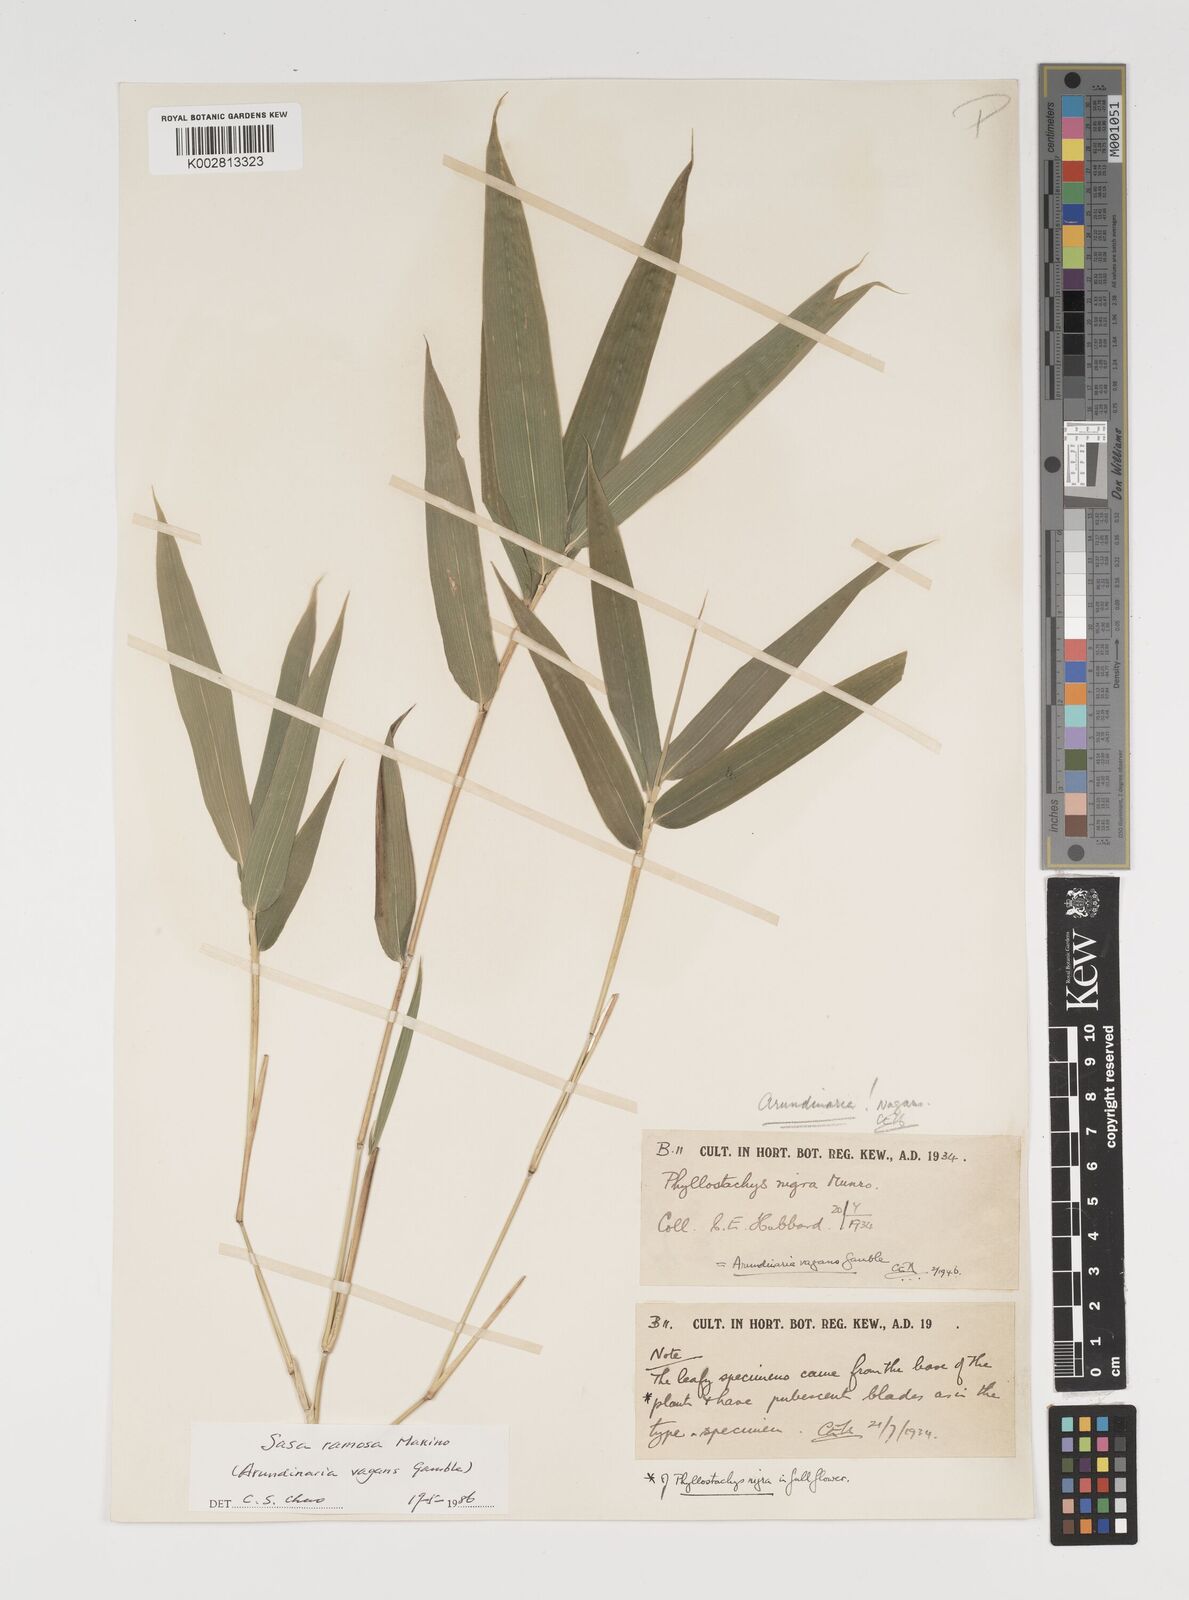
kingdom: Plantae
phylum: Tracheophyta
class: Liliopsida
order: Poales
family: Poaceae
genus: Sasaella
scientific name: Sasaella ramosa
